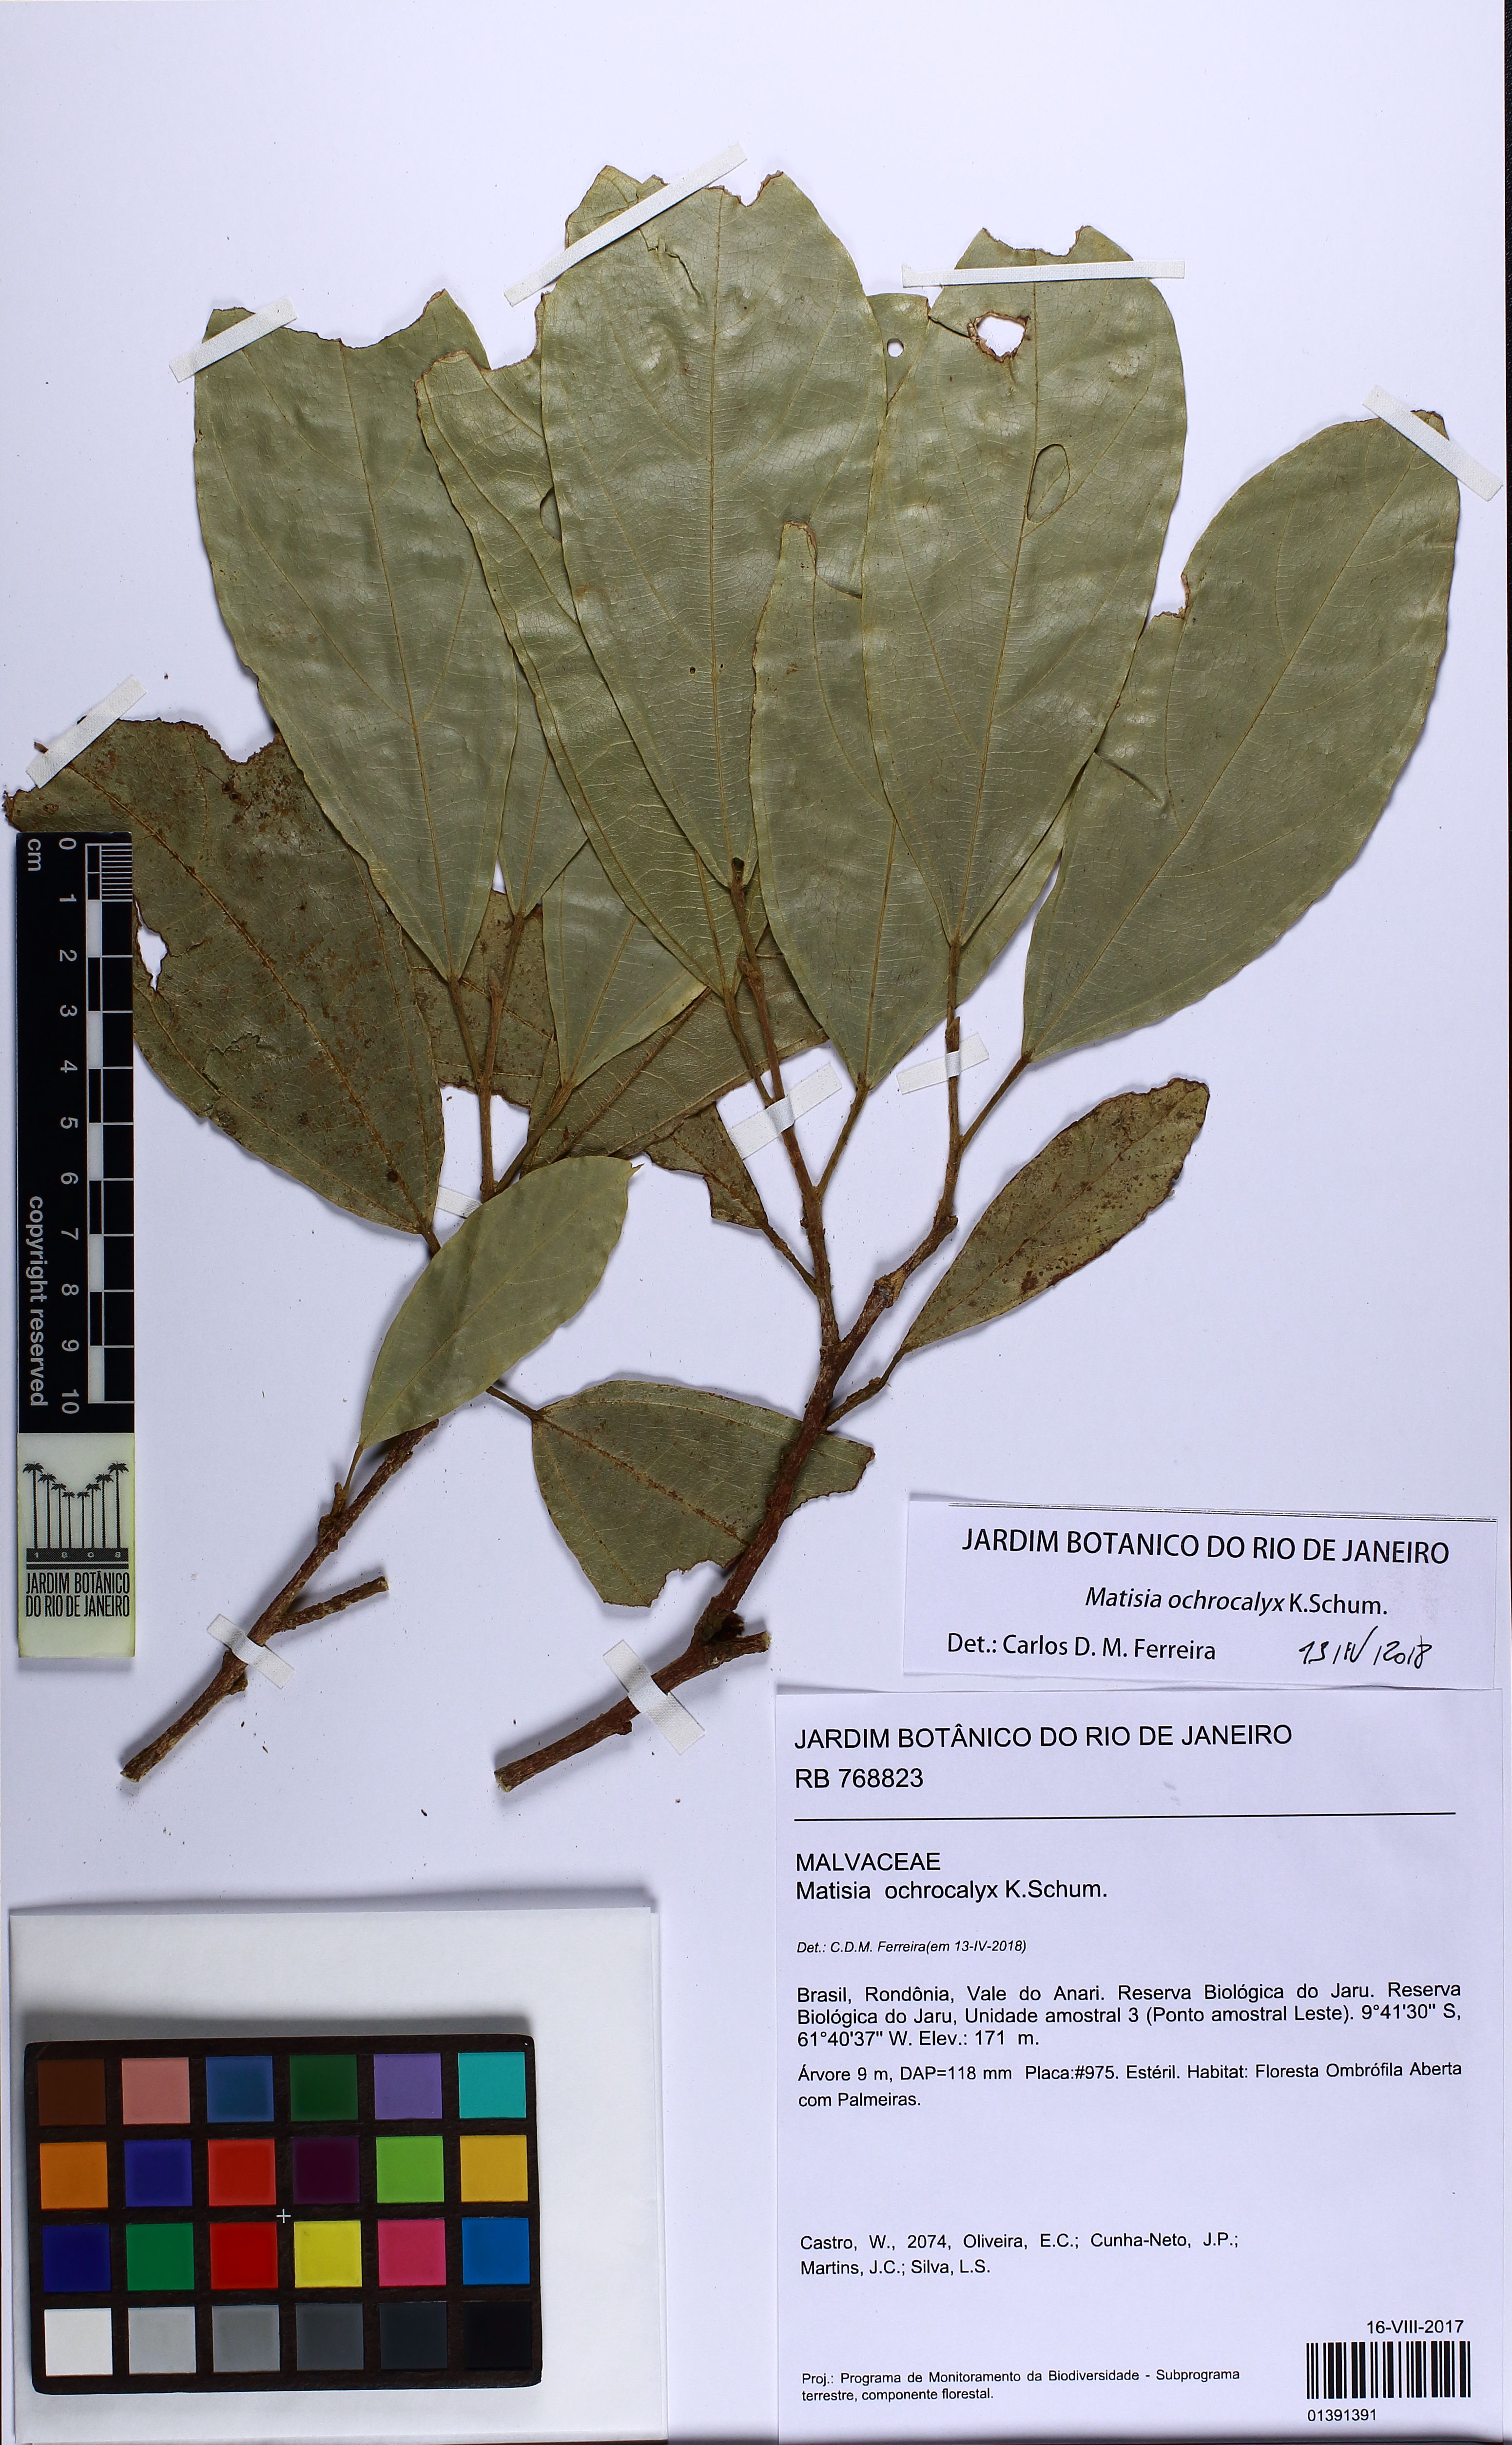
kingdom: Plantae
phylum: Tracheophyta
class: Magnoliopsida
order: Malvales
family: Malvaceae
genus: Matisia
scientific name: Matisia ochrocalyx
